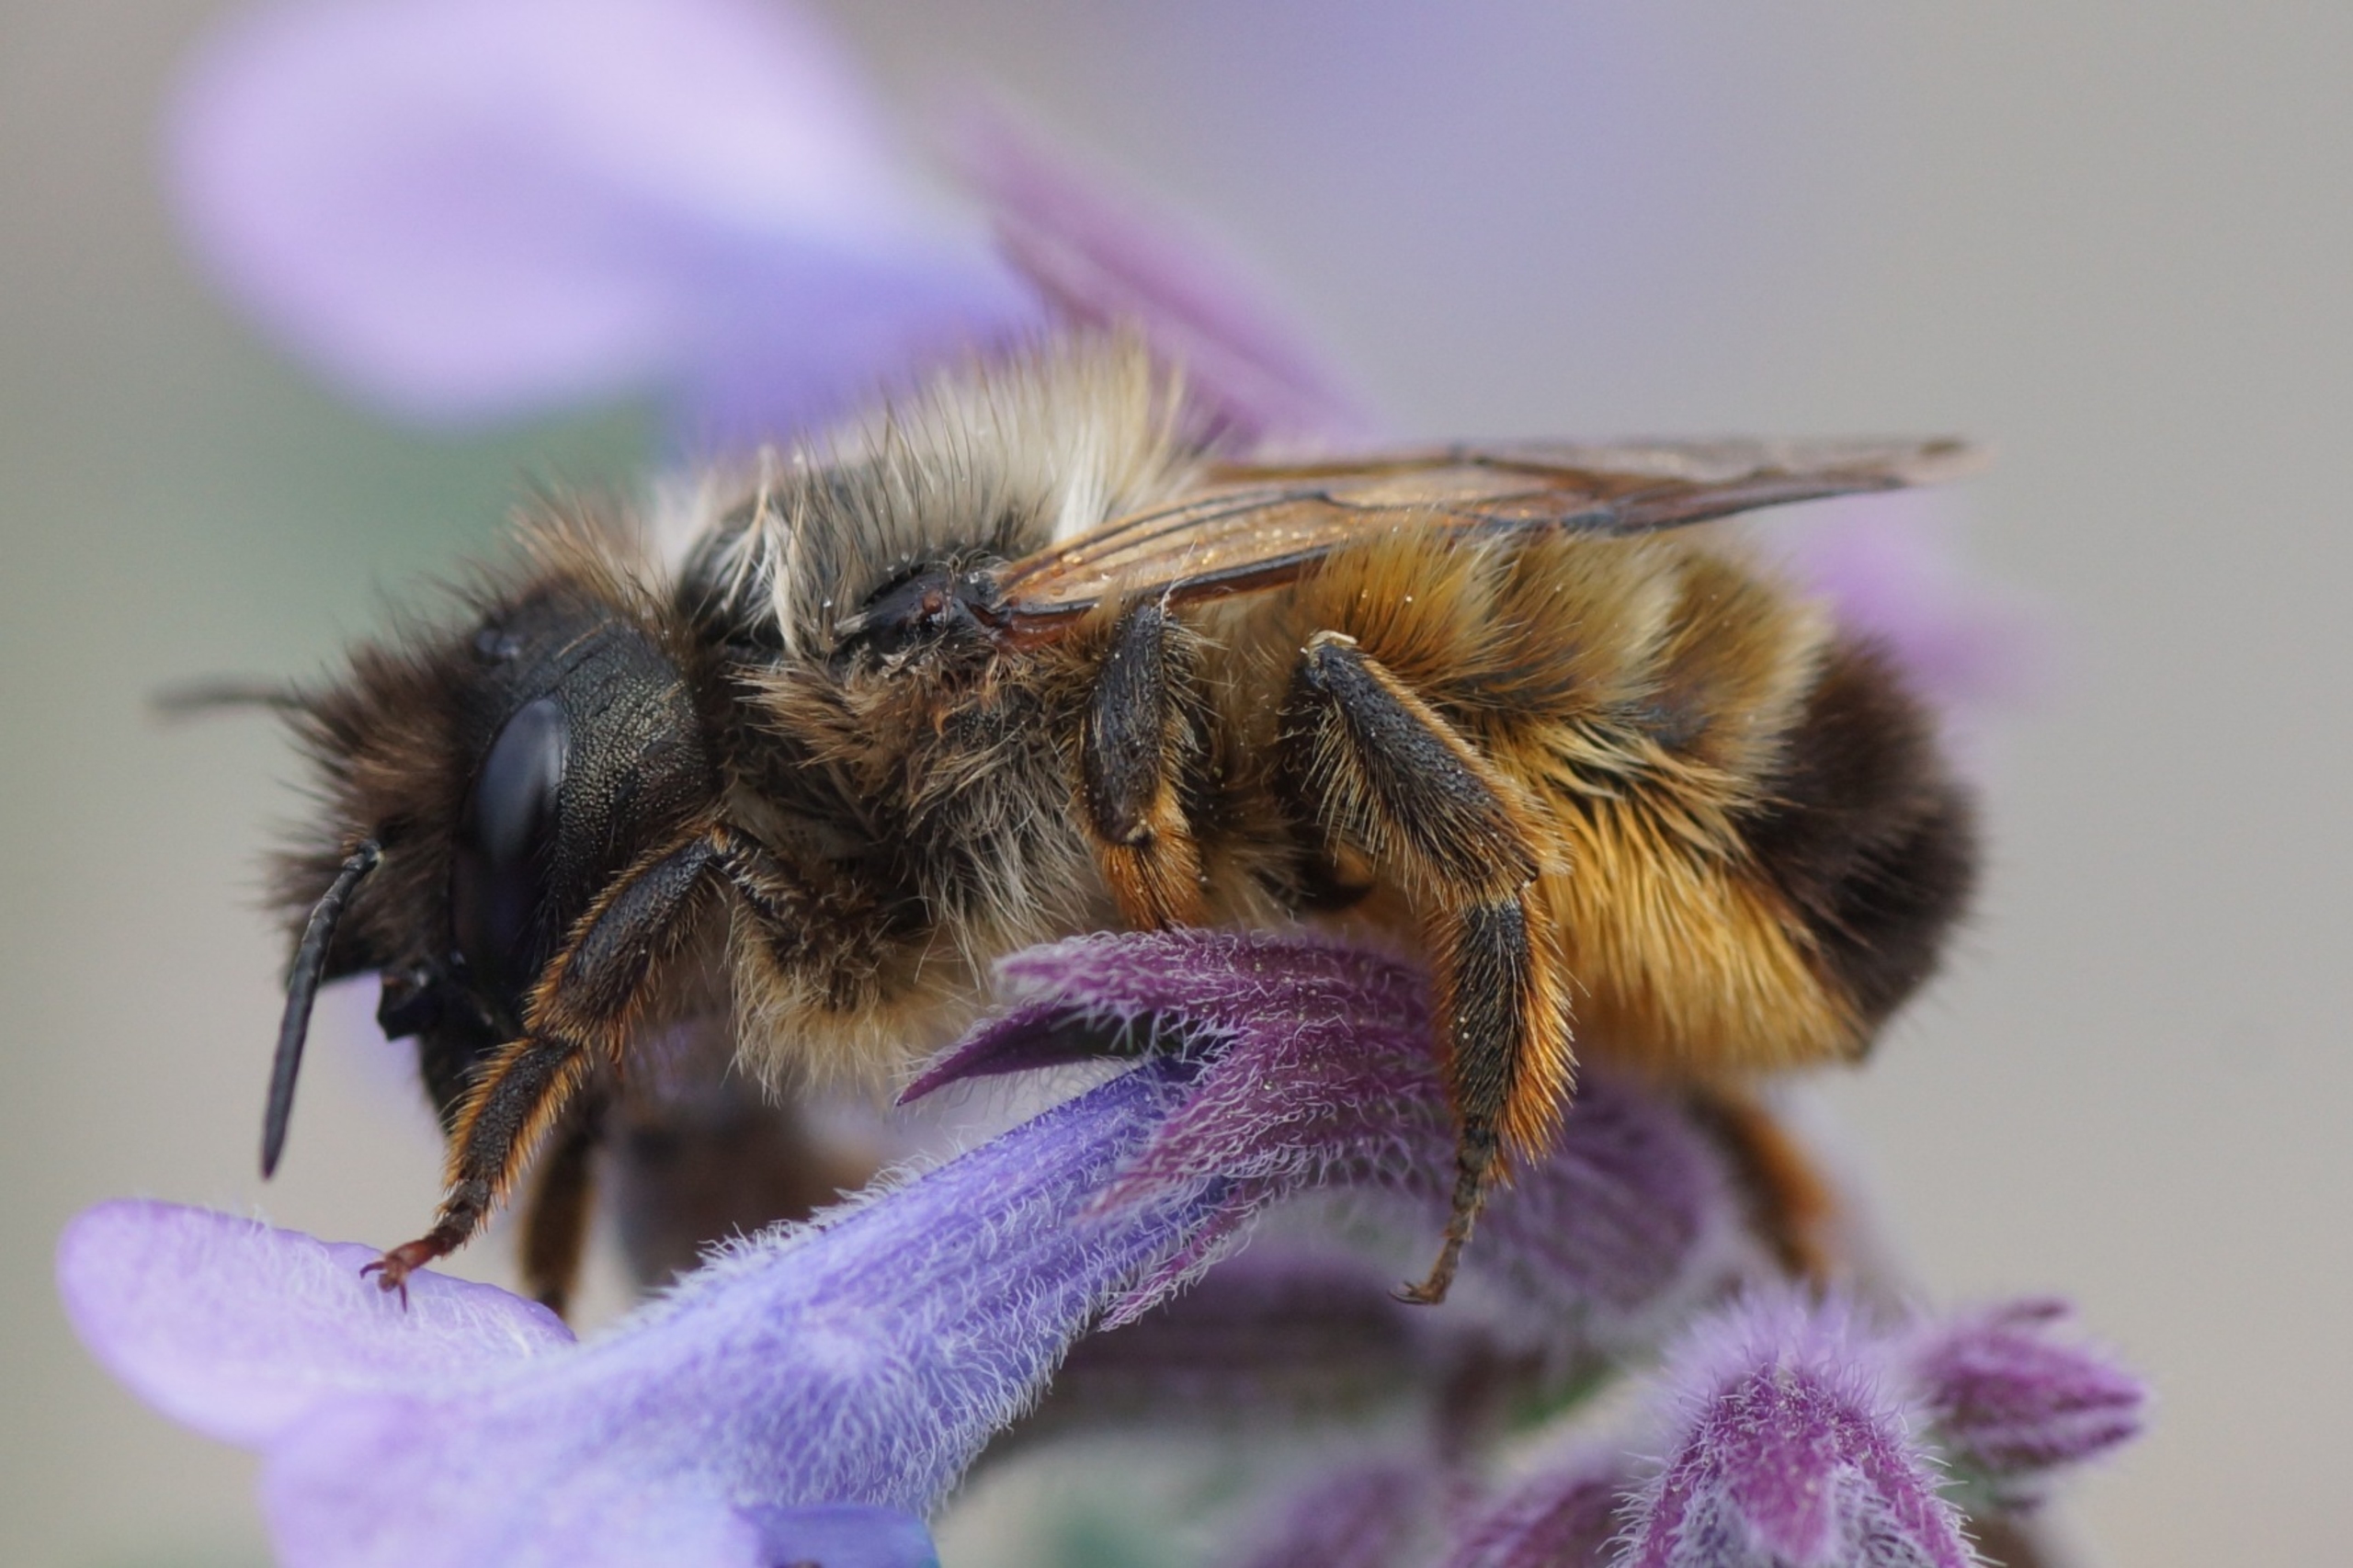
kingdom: Animalia
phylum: Arthropoda
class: Insecta
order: Hymenoptera
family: Megachilidae
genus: Osmia
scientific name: Osmia bicornis
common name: Rød murerbi
